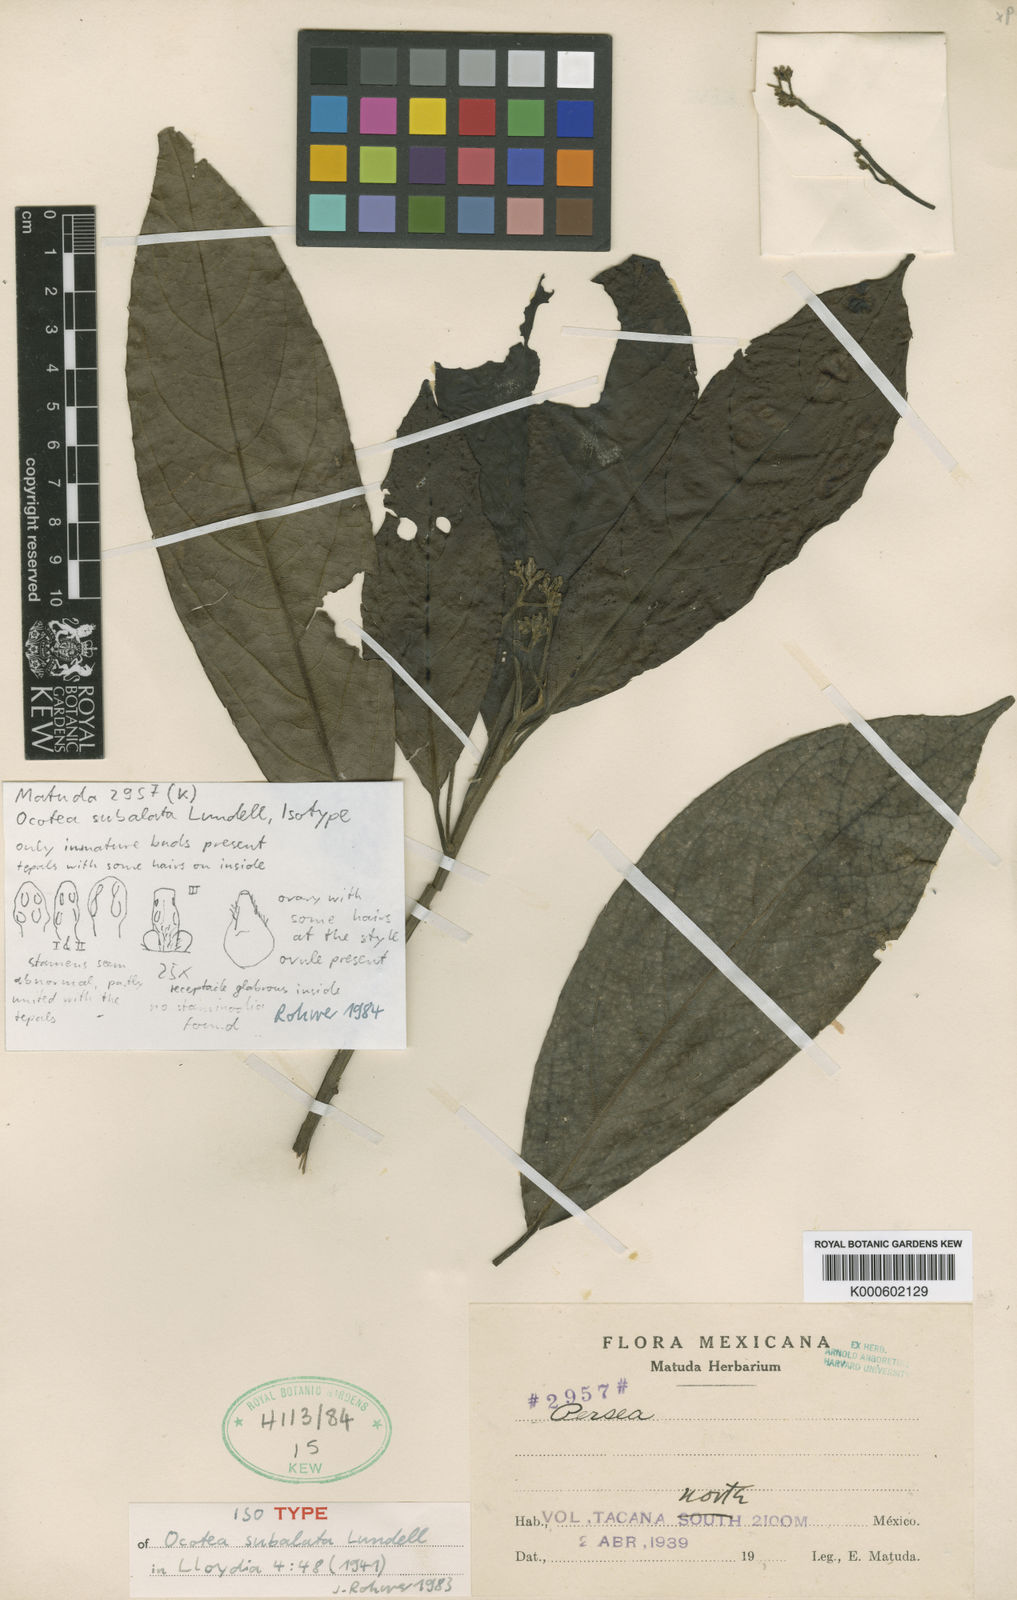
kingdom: Plantae
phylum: Tracheophyta
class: Magnoliopsida
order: Laurales
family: Lauraceae
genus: Ocotea
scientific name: Ocotea subalata
